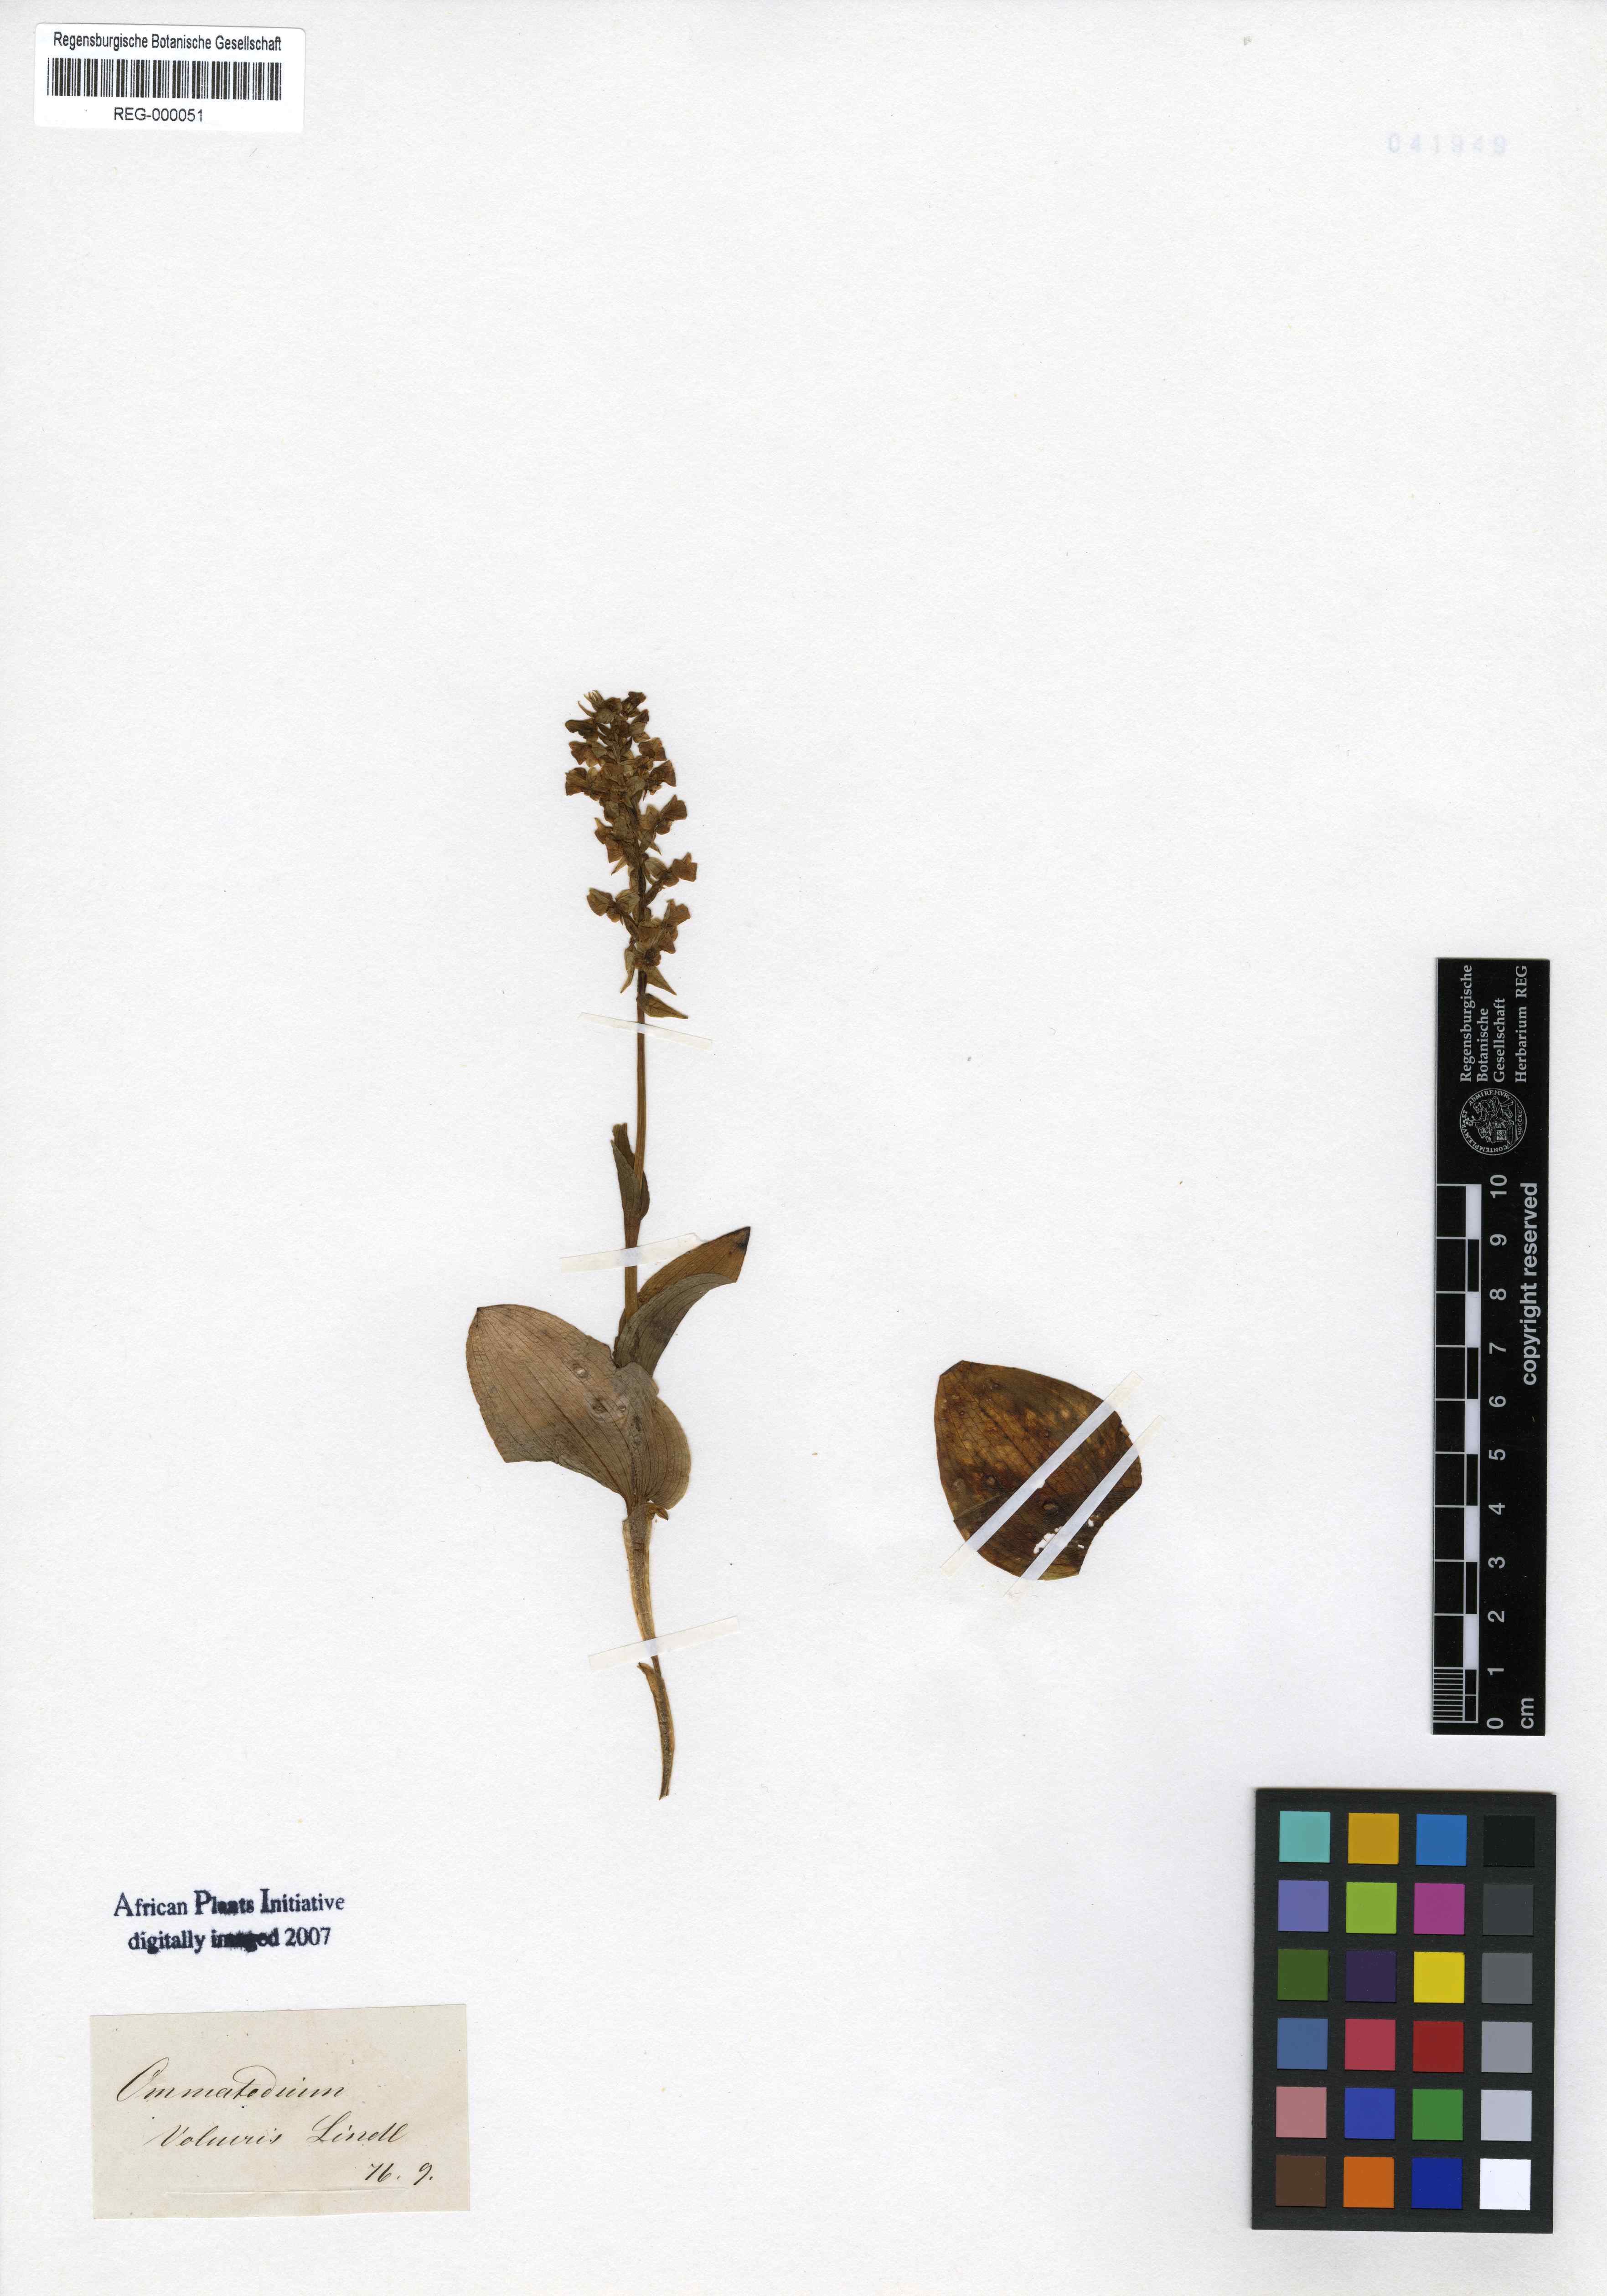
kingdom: Plantae
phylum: Tracheophyta
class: Liliopsida
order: Asparagales
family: Orchidaceae
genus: Pterygodium
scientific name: Pterygodium volucris
